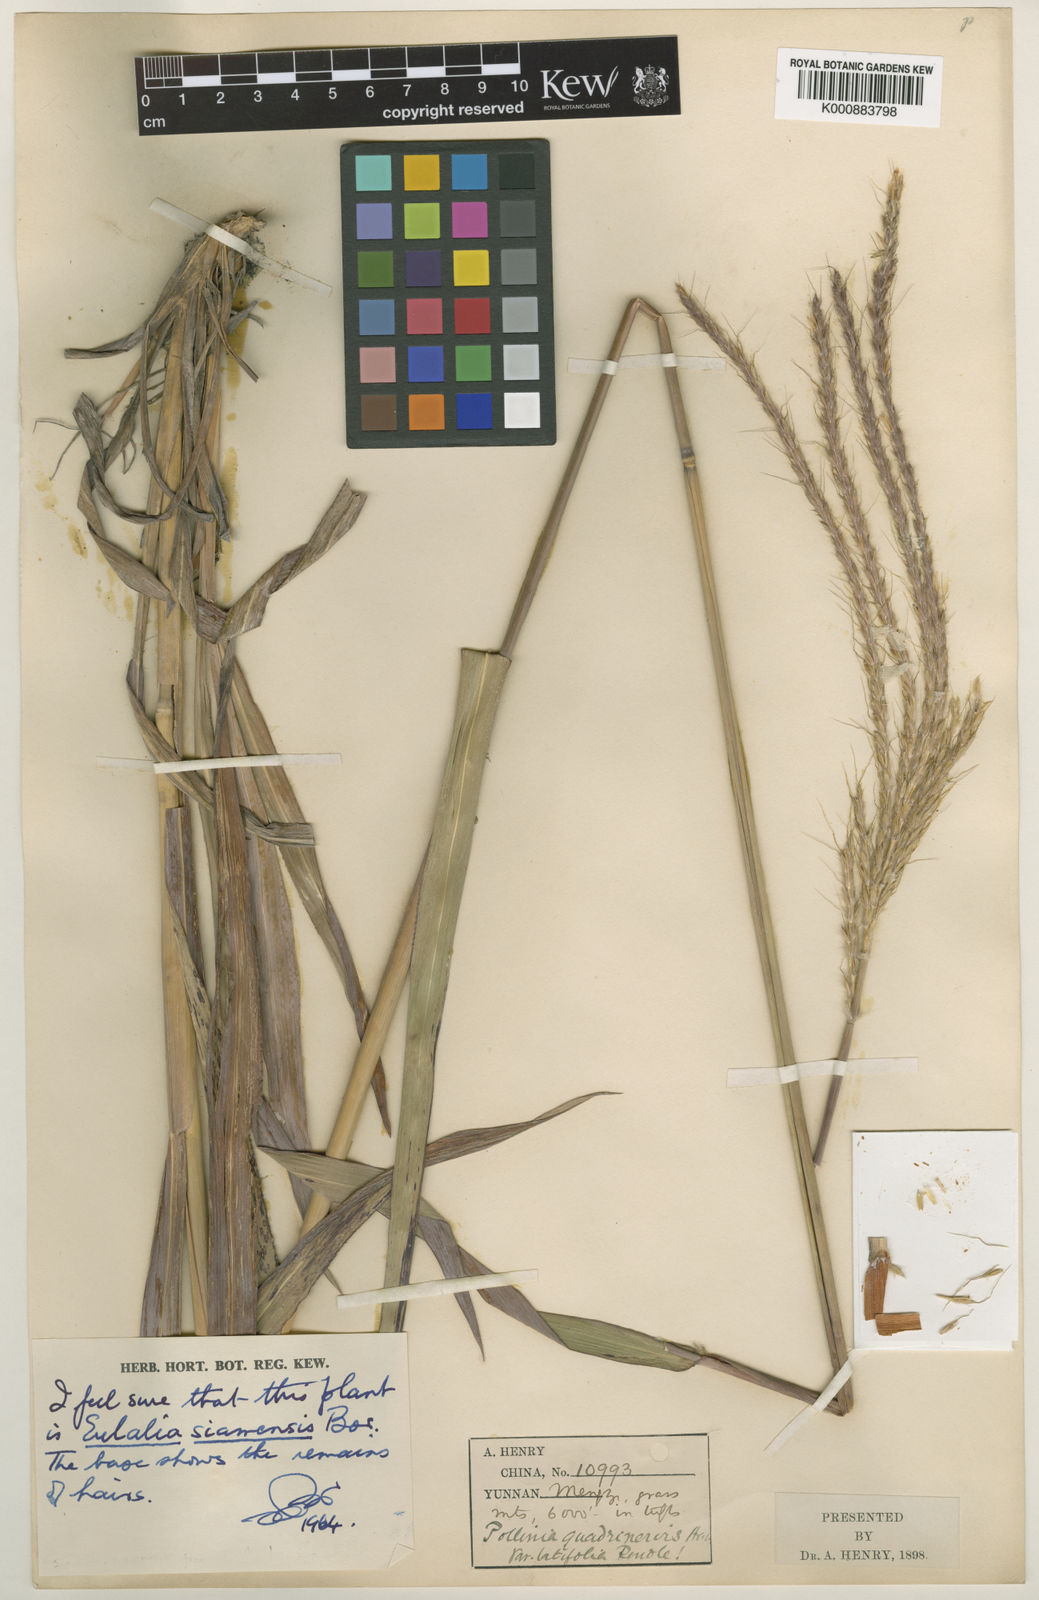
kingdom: Plantae
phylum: Tracheophyta
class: Liliopsida
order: Poales
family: Poaceae
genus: Eulalia
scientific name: Eulalia villosa
